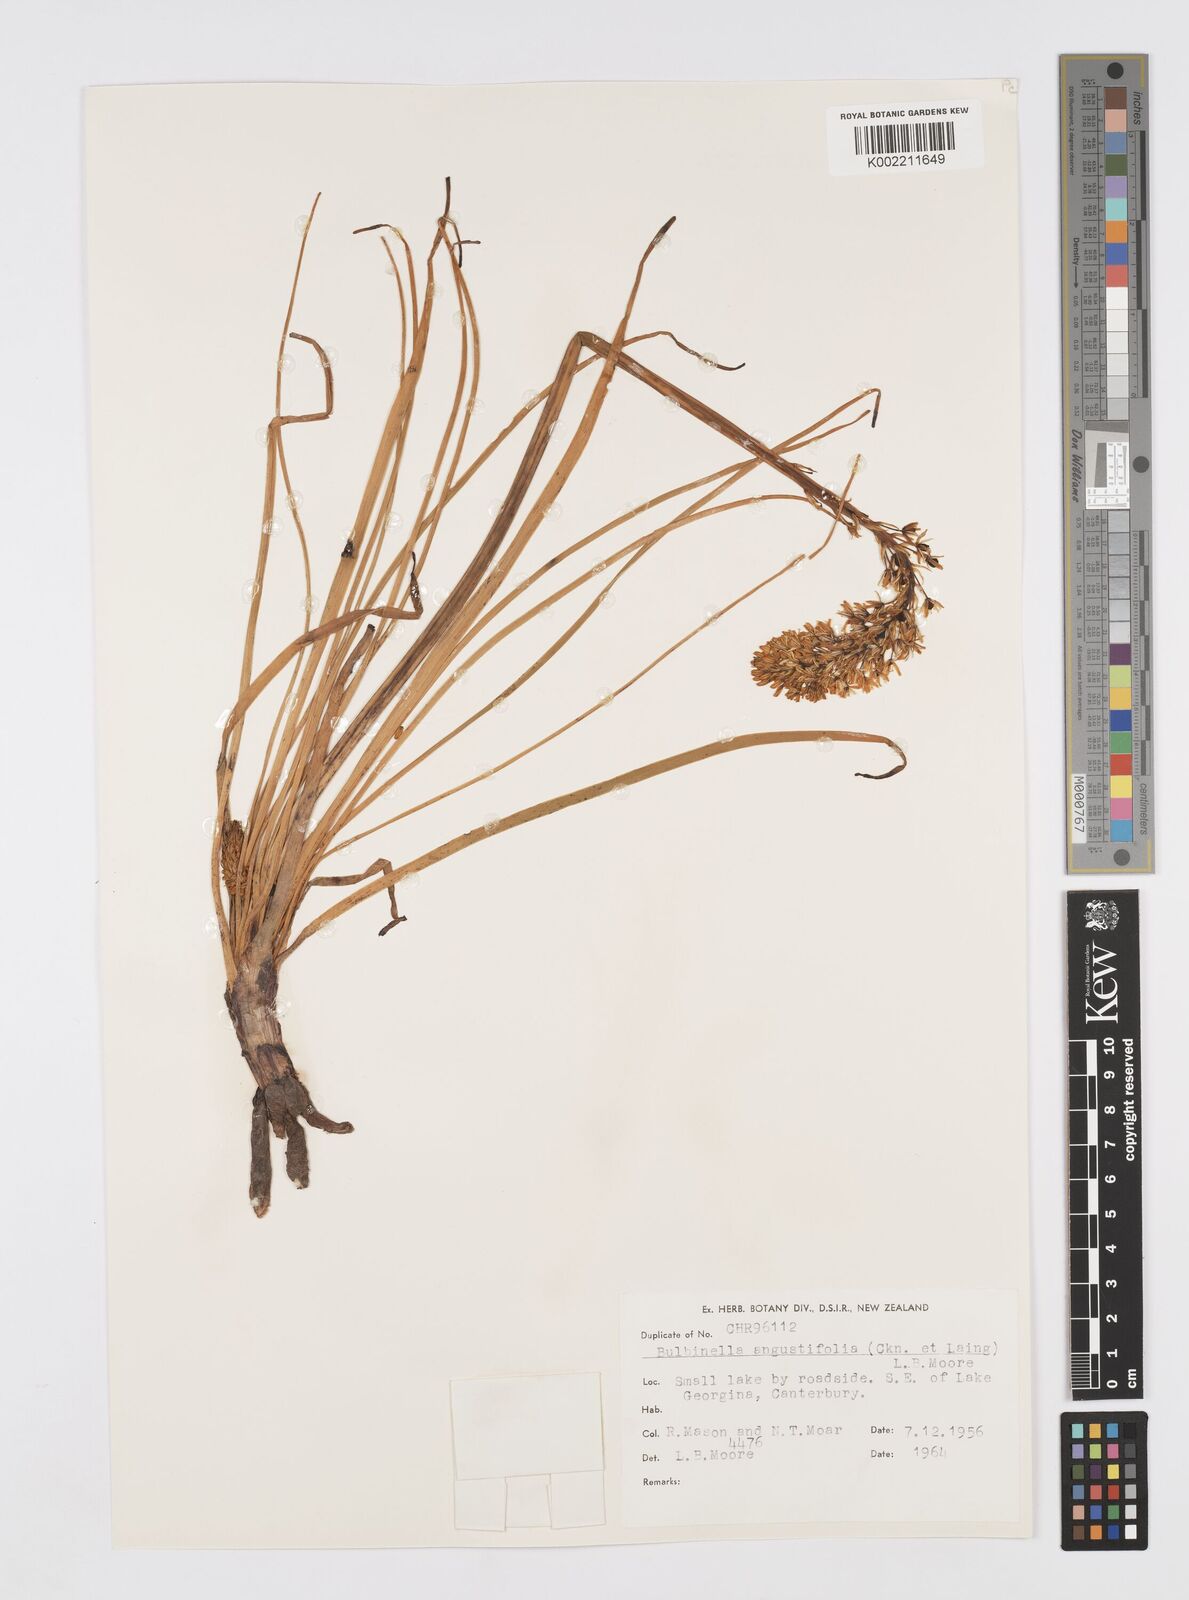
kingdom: Plantae
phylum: Tracheophyta
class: Liliopsida
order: Asparagales
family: Asphodelaceae
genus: Bulbinella
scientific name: Bulbinella angustifolia
